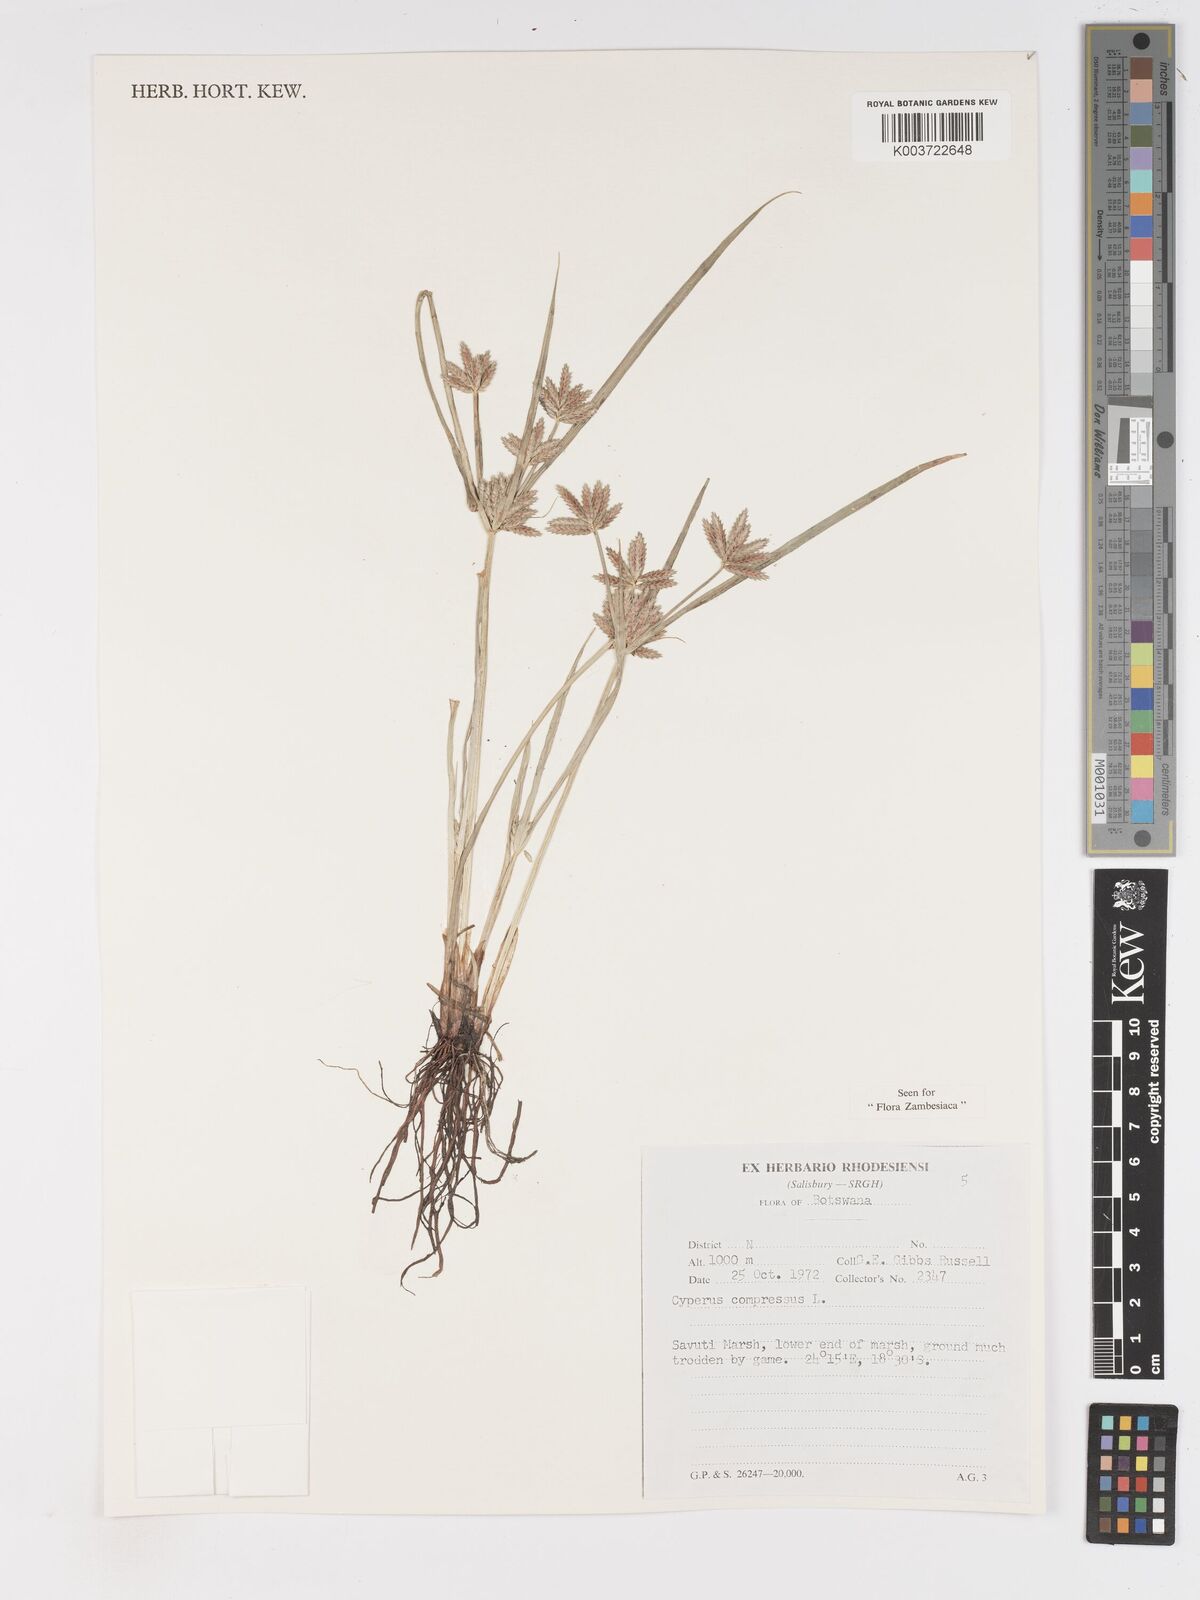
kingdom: Plantae
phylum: Tracheophyta
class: Liliopsida
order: Poales
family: Cyperaceae
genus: Cyperus
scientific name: Cyperus compressus
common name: Poorland flatsedge
